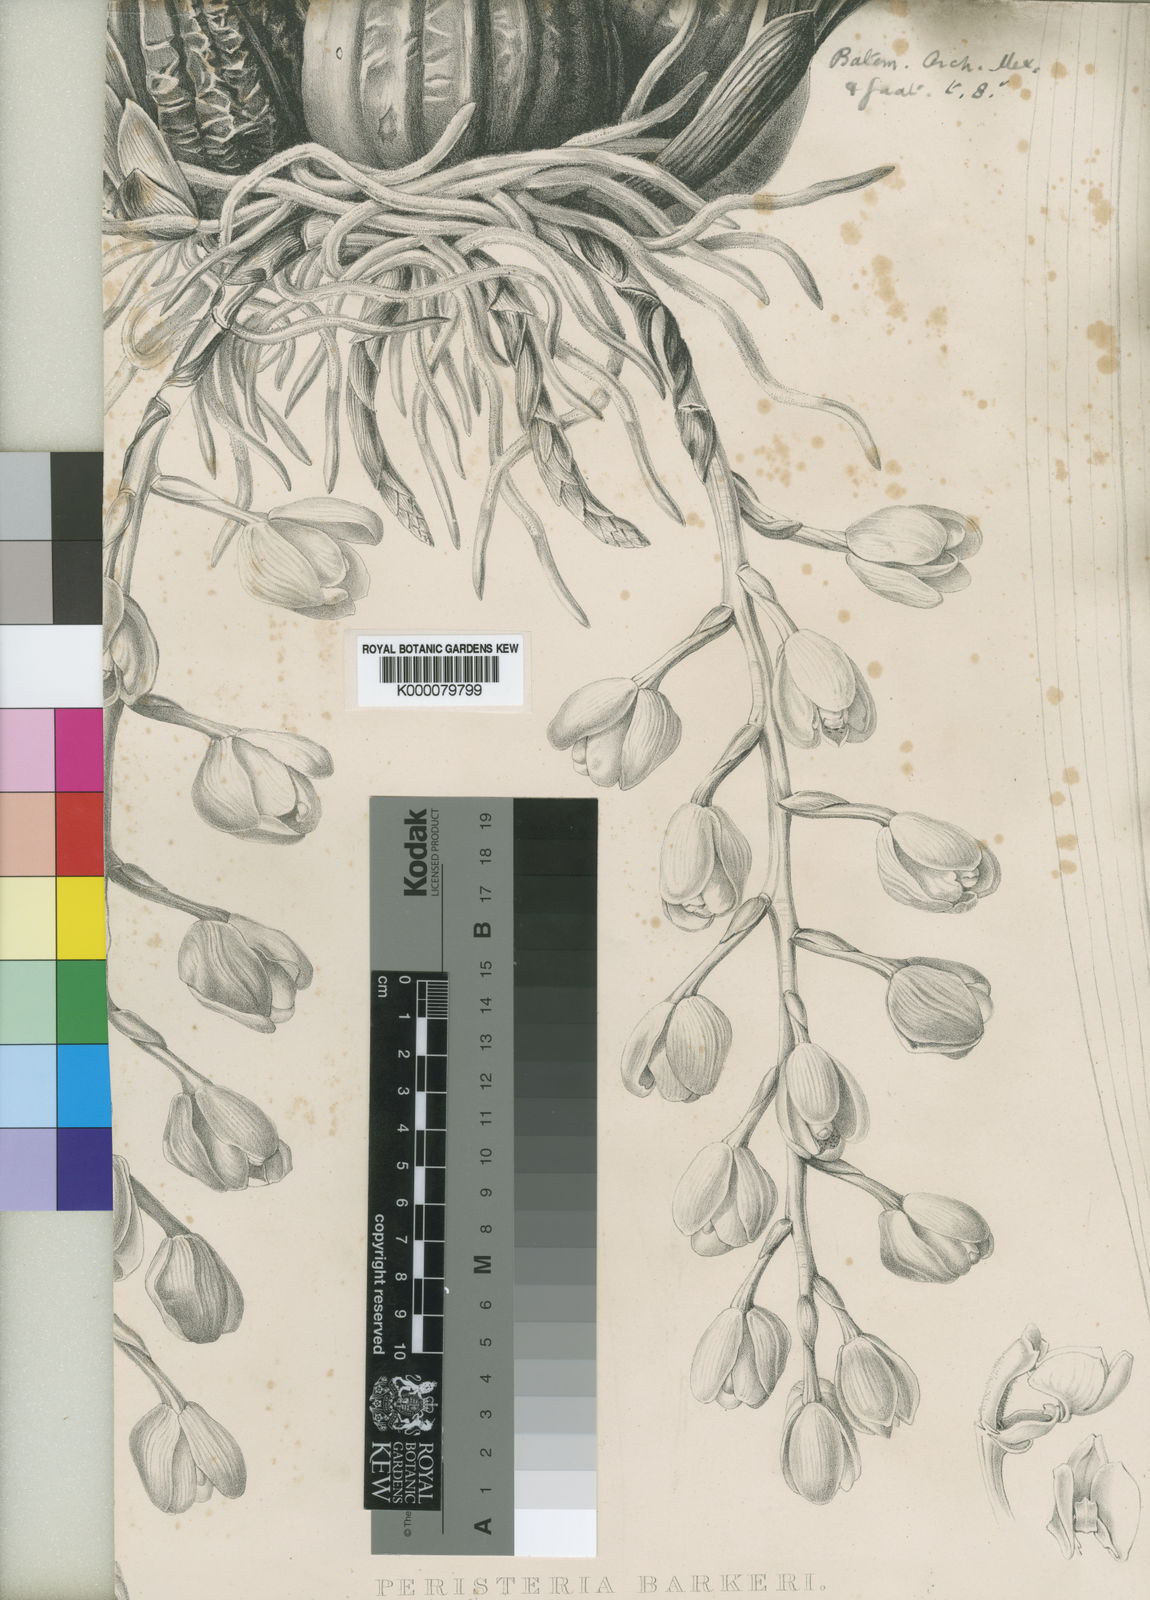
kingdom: Plantae
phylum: Tracheophyta
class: Liliopsida
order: Asparagales
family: Orchidaceae
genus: Acineta
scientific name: Acineta barkeri
